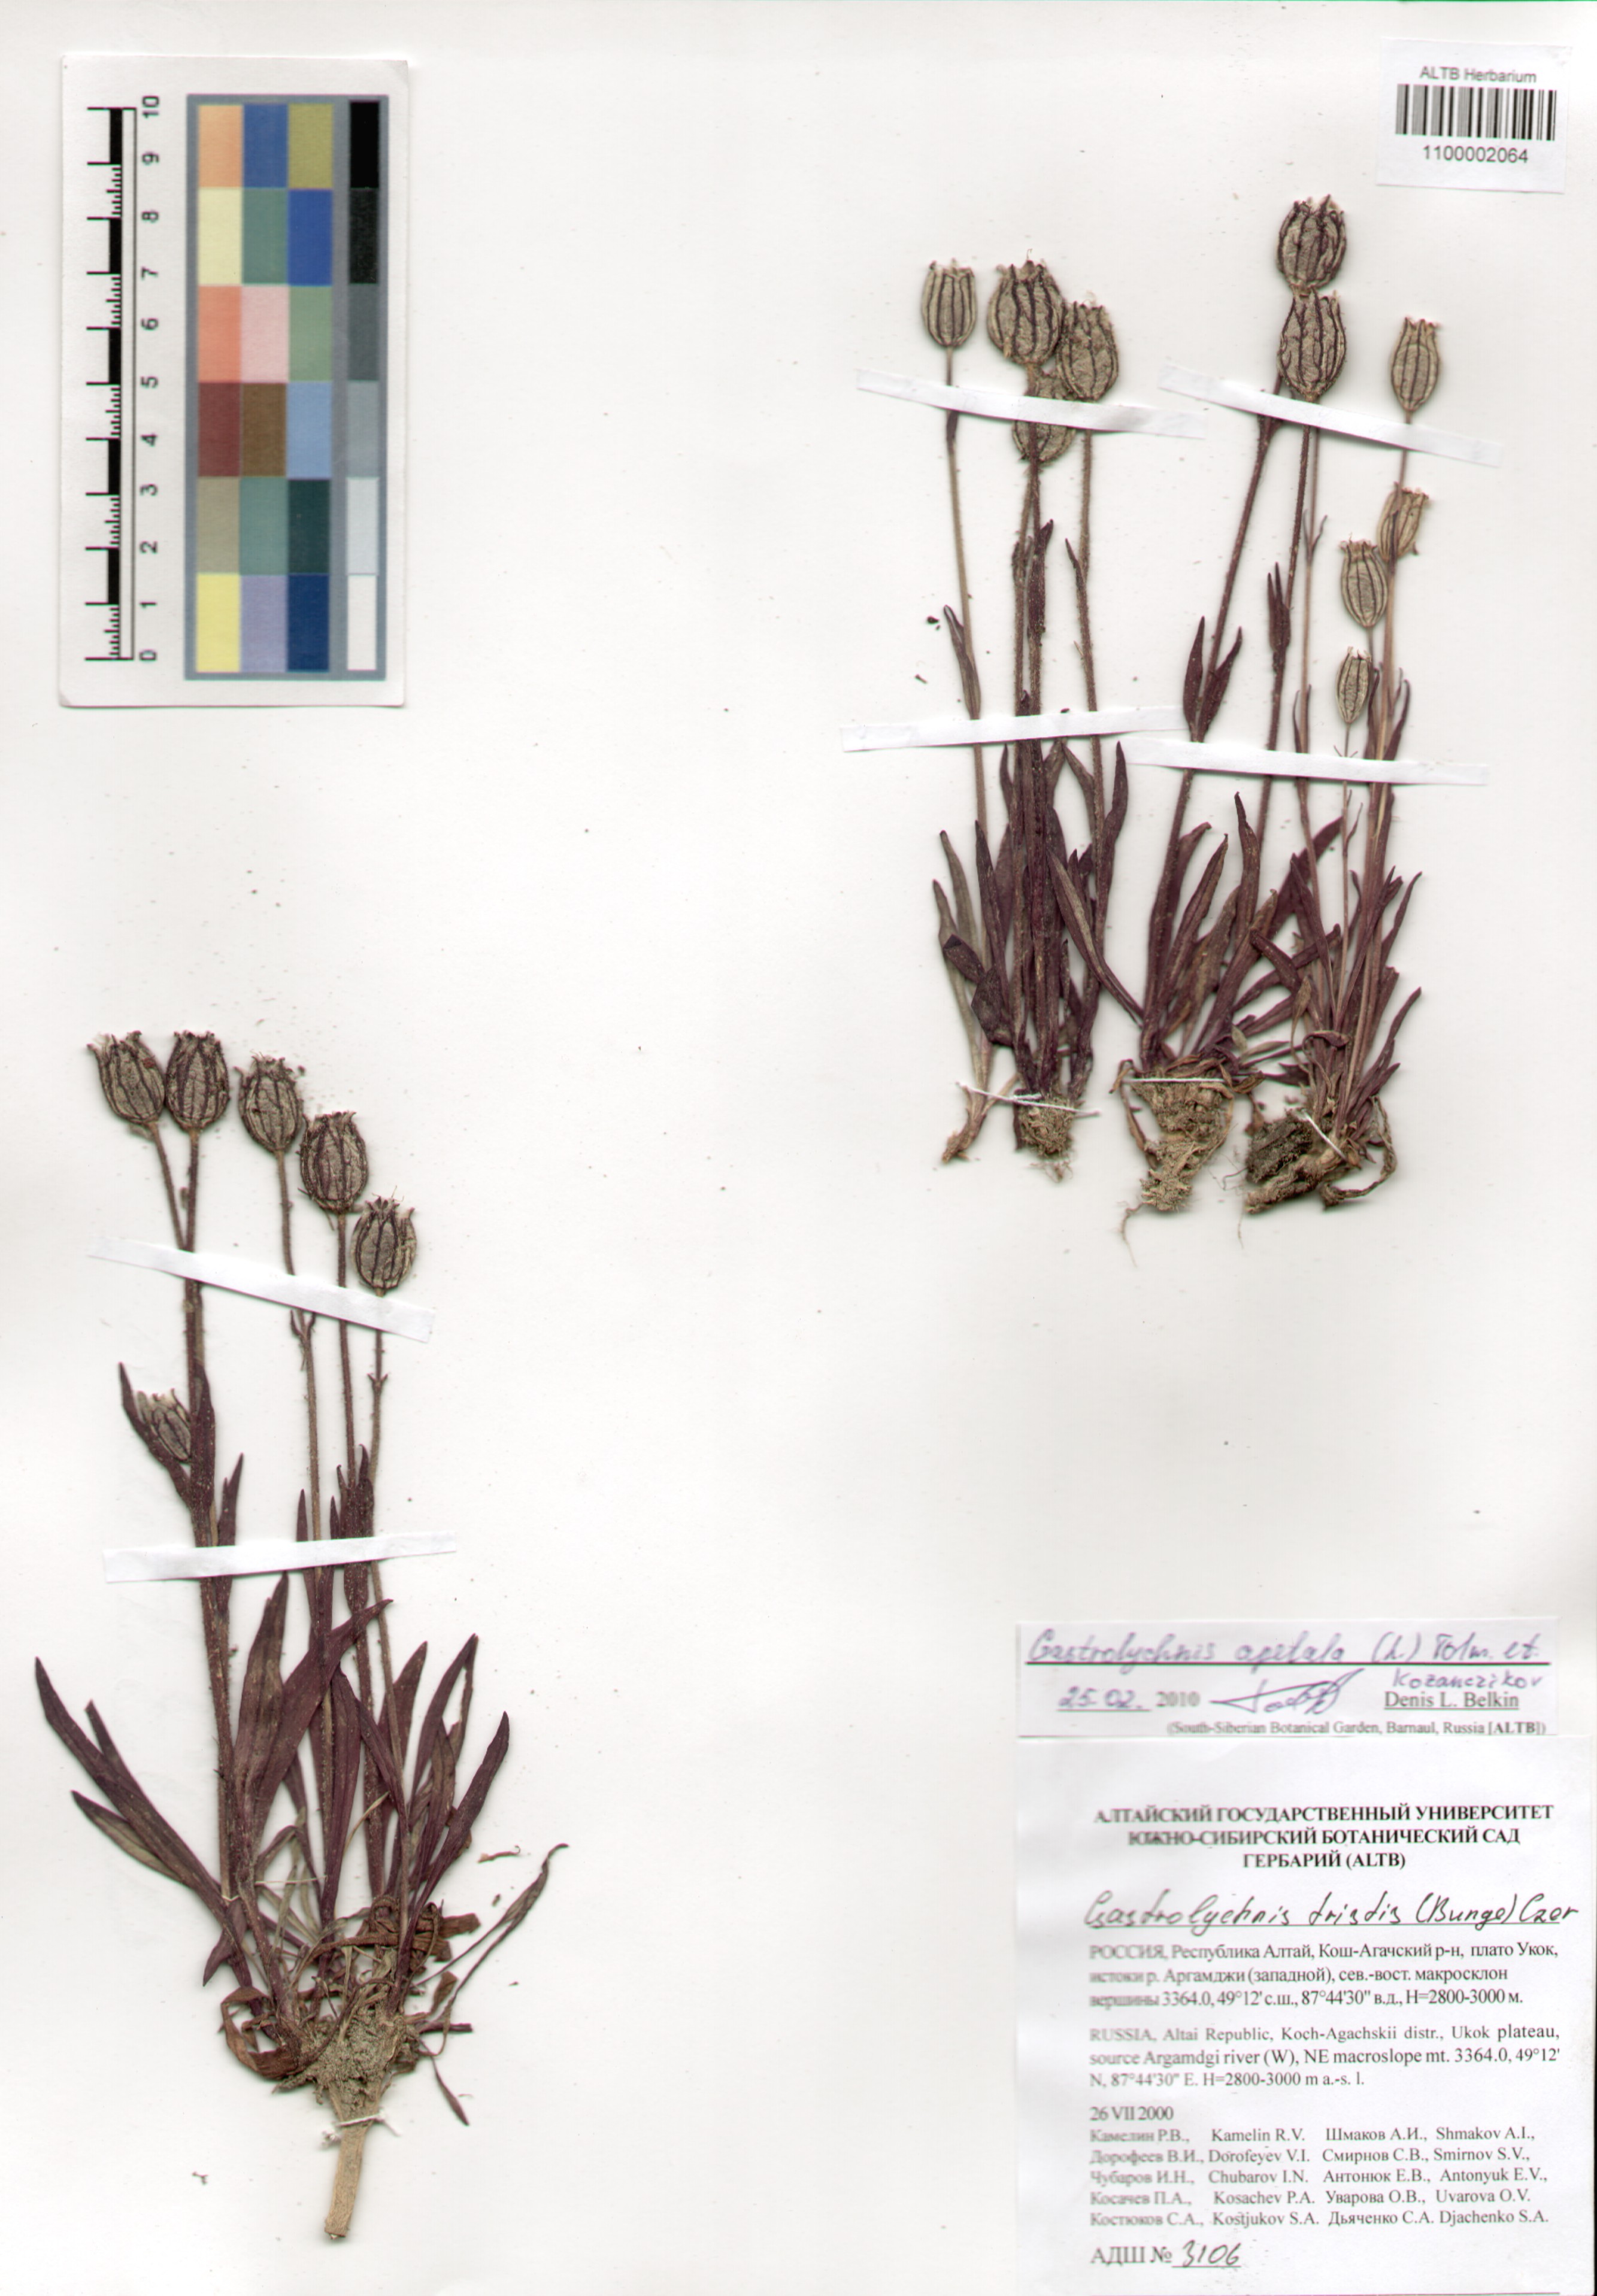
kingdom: Plantae
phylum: Tracheophyta
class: Magnoliopsida
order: Caryophyllales
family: Caryophyllaceae
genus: Silene
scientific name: Silene wahlbergella
